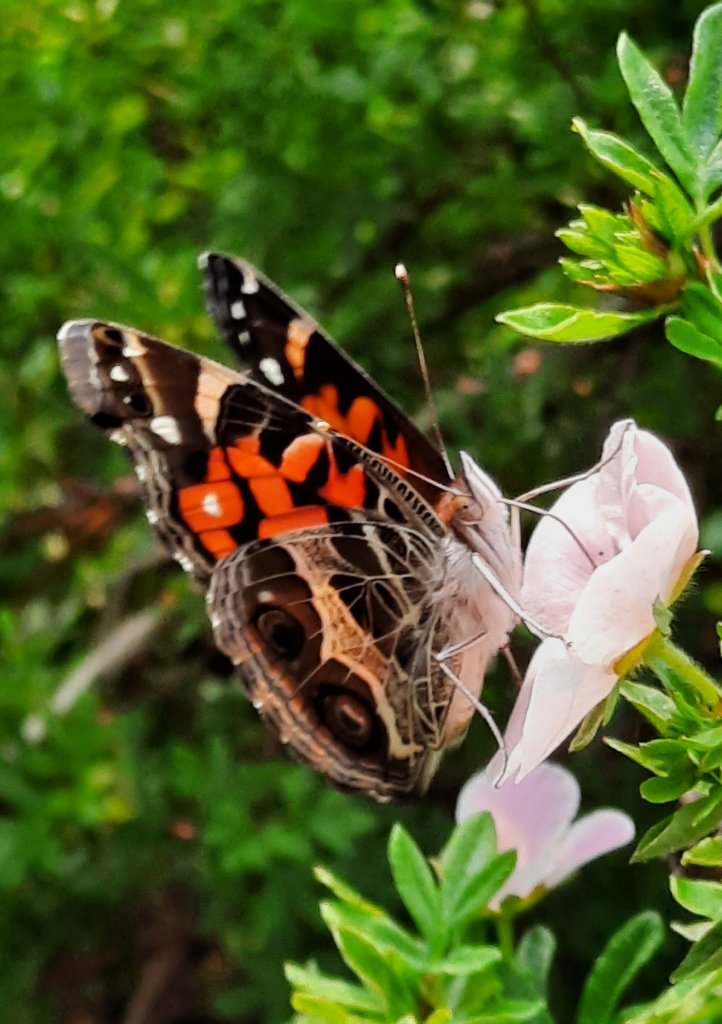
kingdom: Animalia
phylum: Arthropoda
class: Insecta
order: Lepidoptera
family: Nymphalidae
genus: Vanessa
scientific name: Vanessa virginiensis
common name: American Lady
